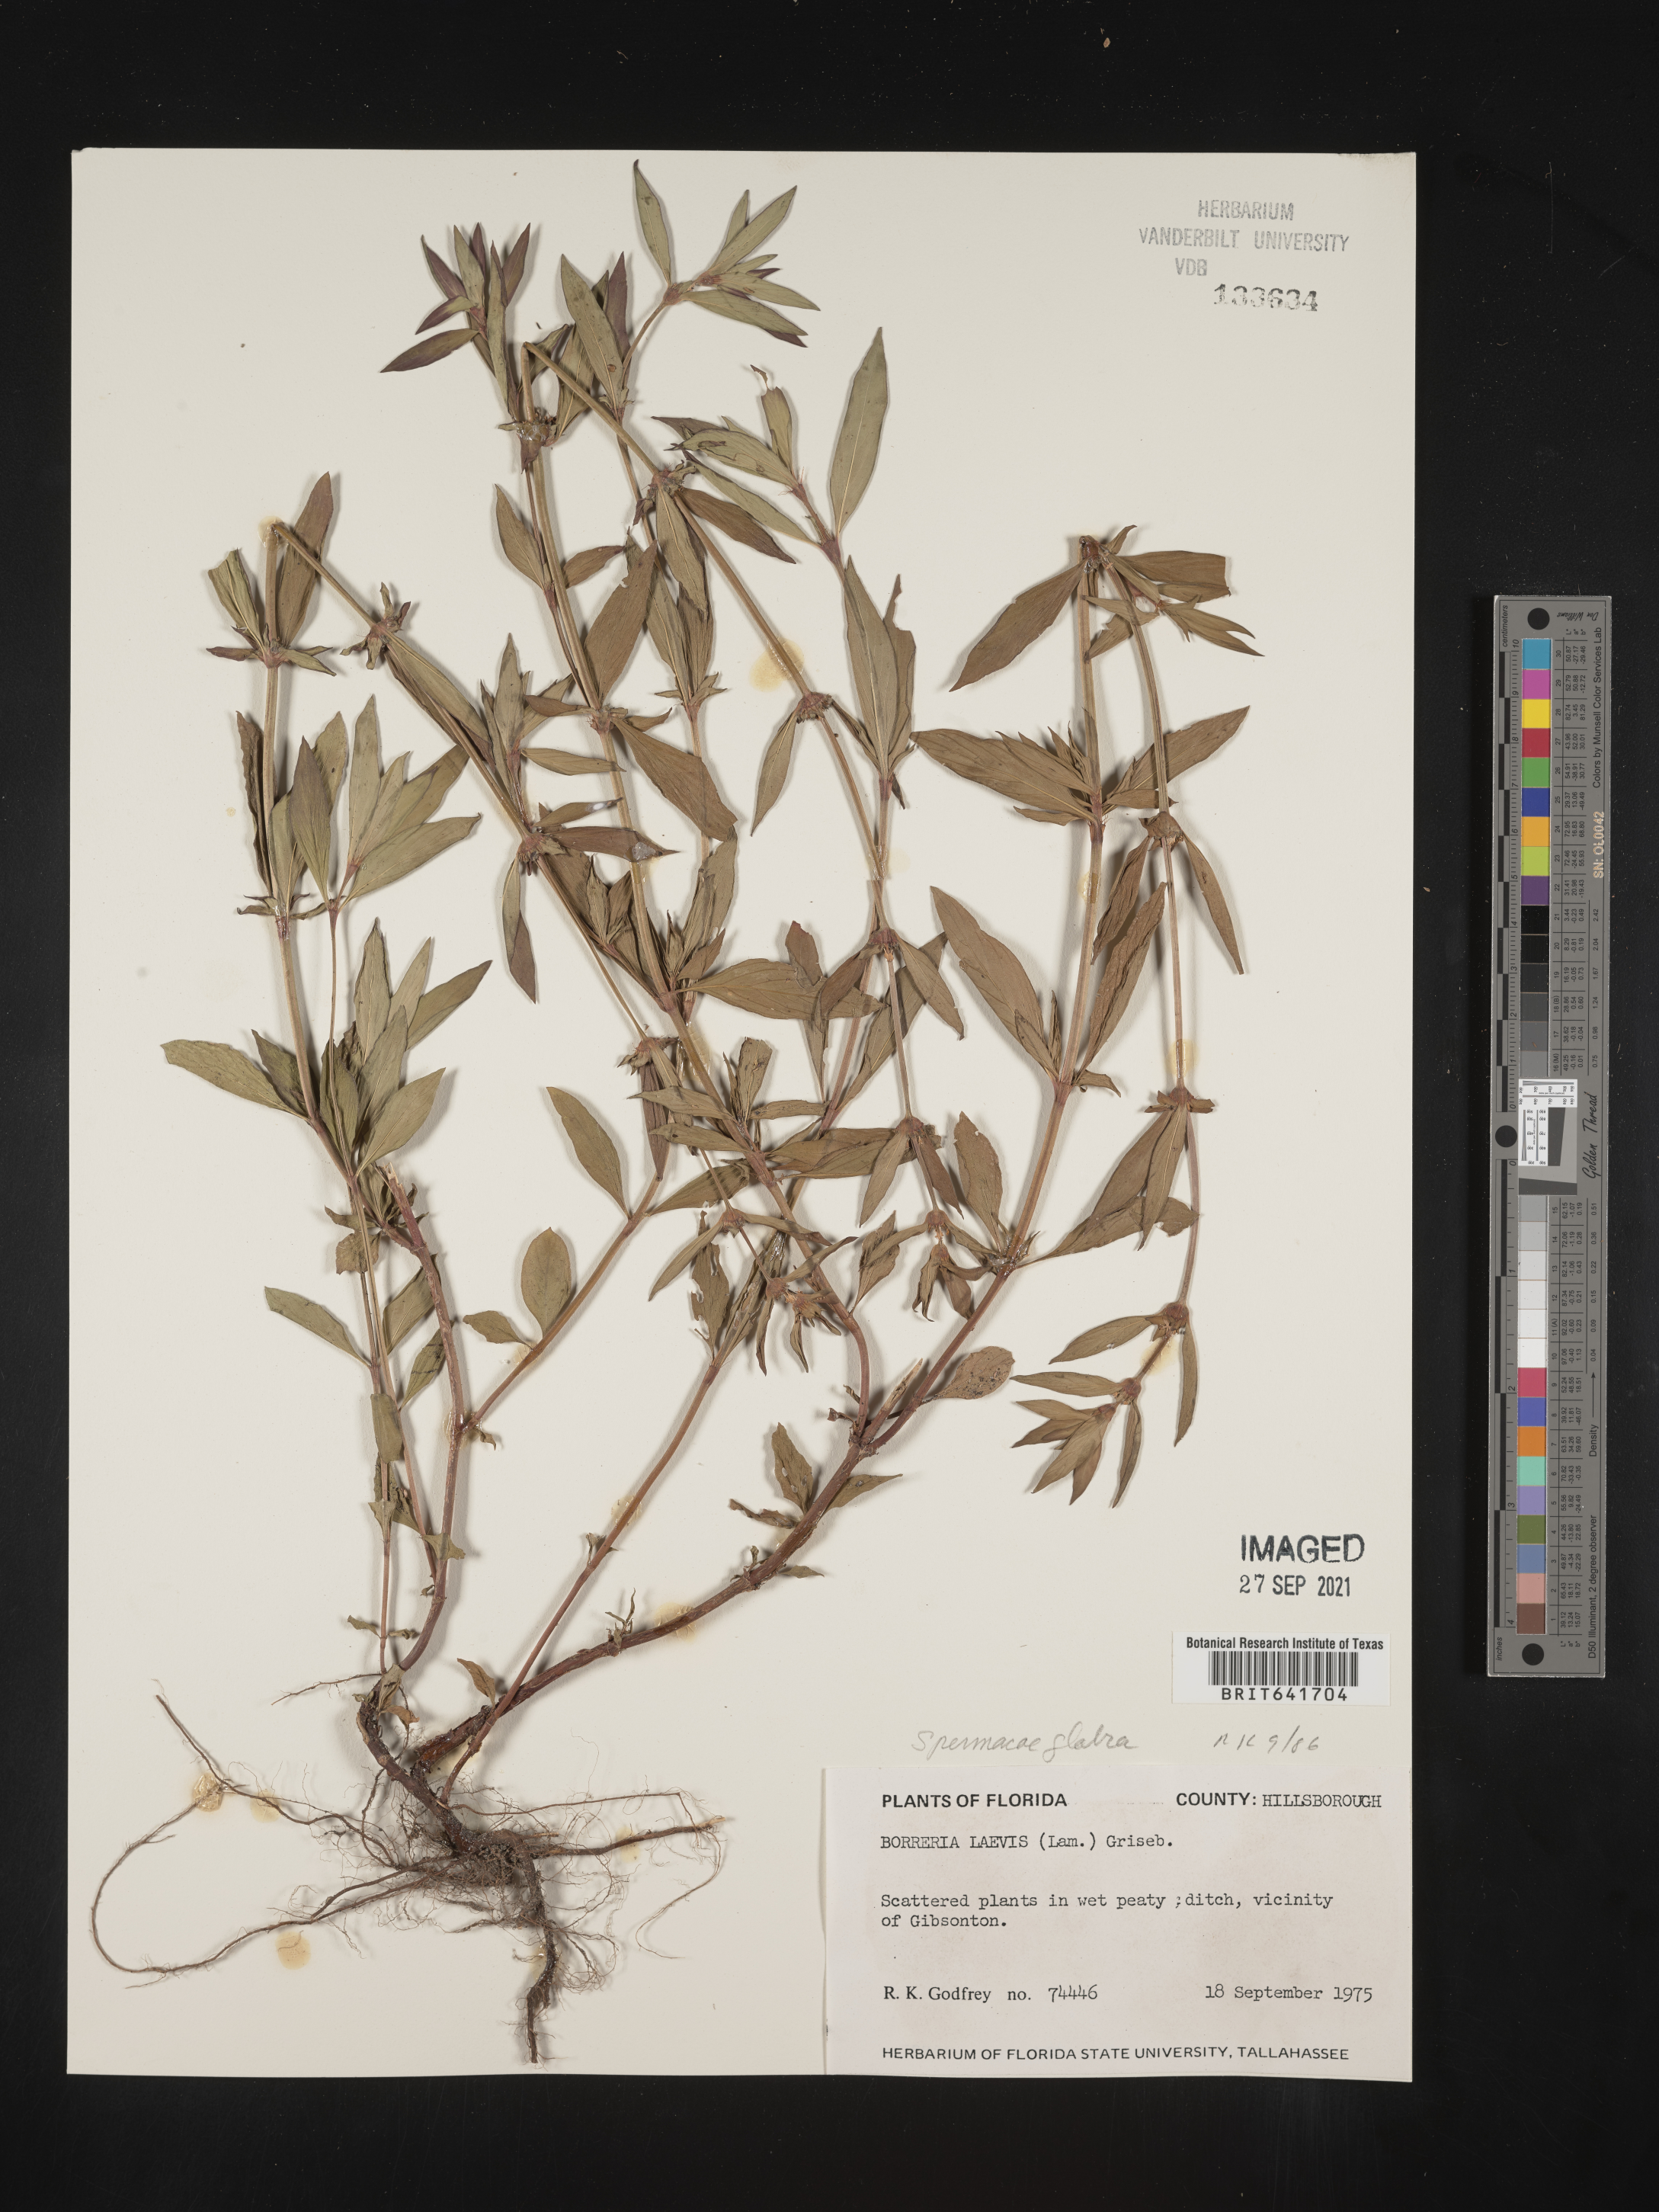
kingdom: Plantae
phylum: Tracheophyta
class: Magnoliopsida
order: Gentianales
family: Rubiaceae
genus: Spermacoce
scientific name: Spermacoce glabra
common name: Smooth buttonweed
